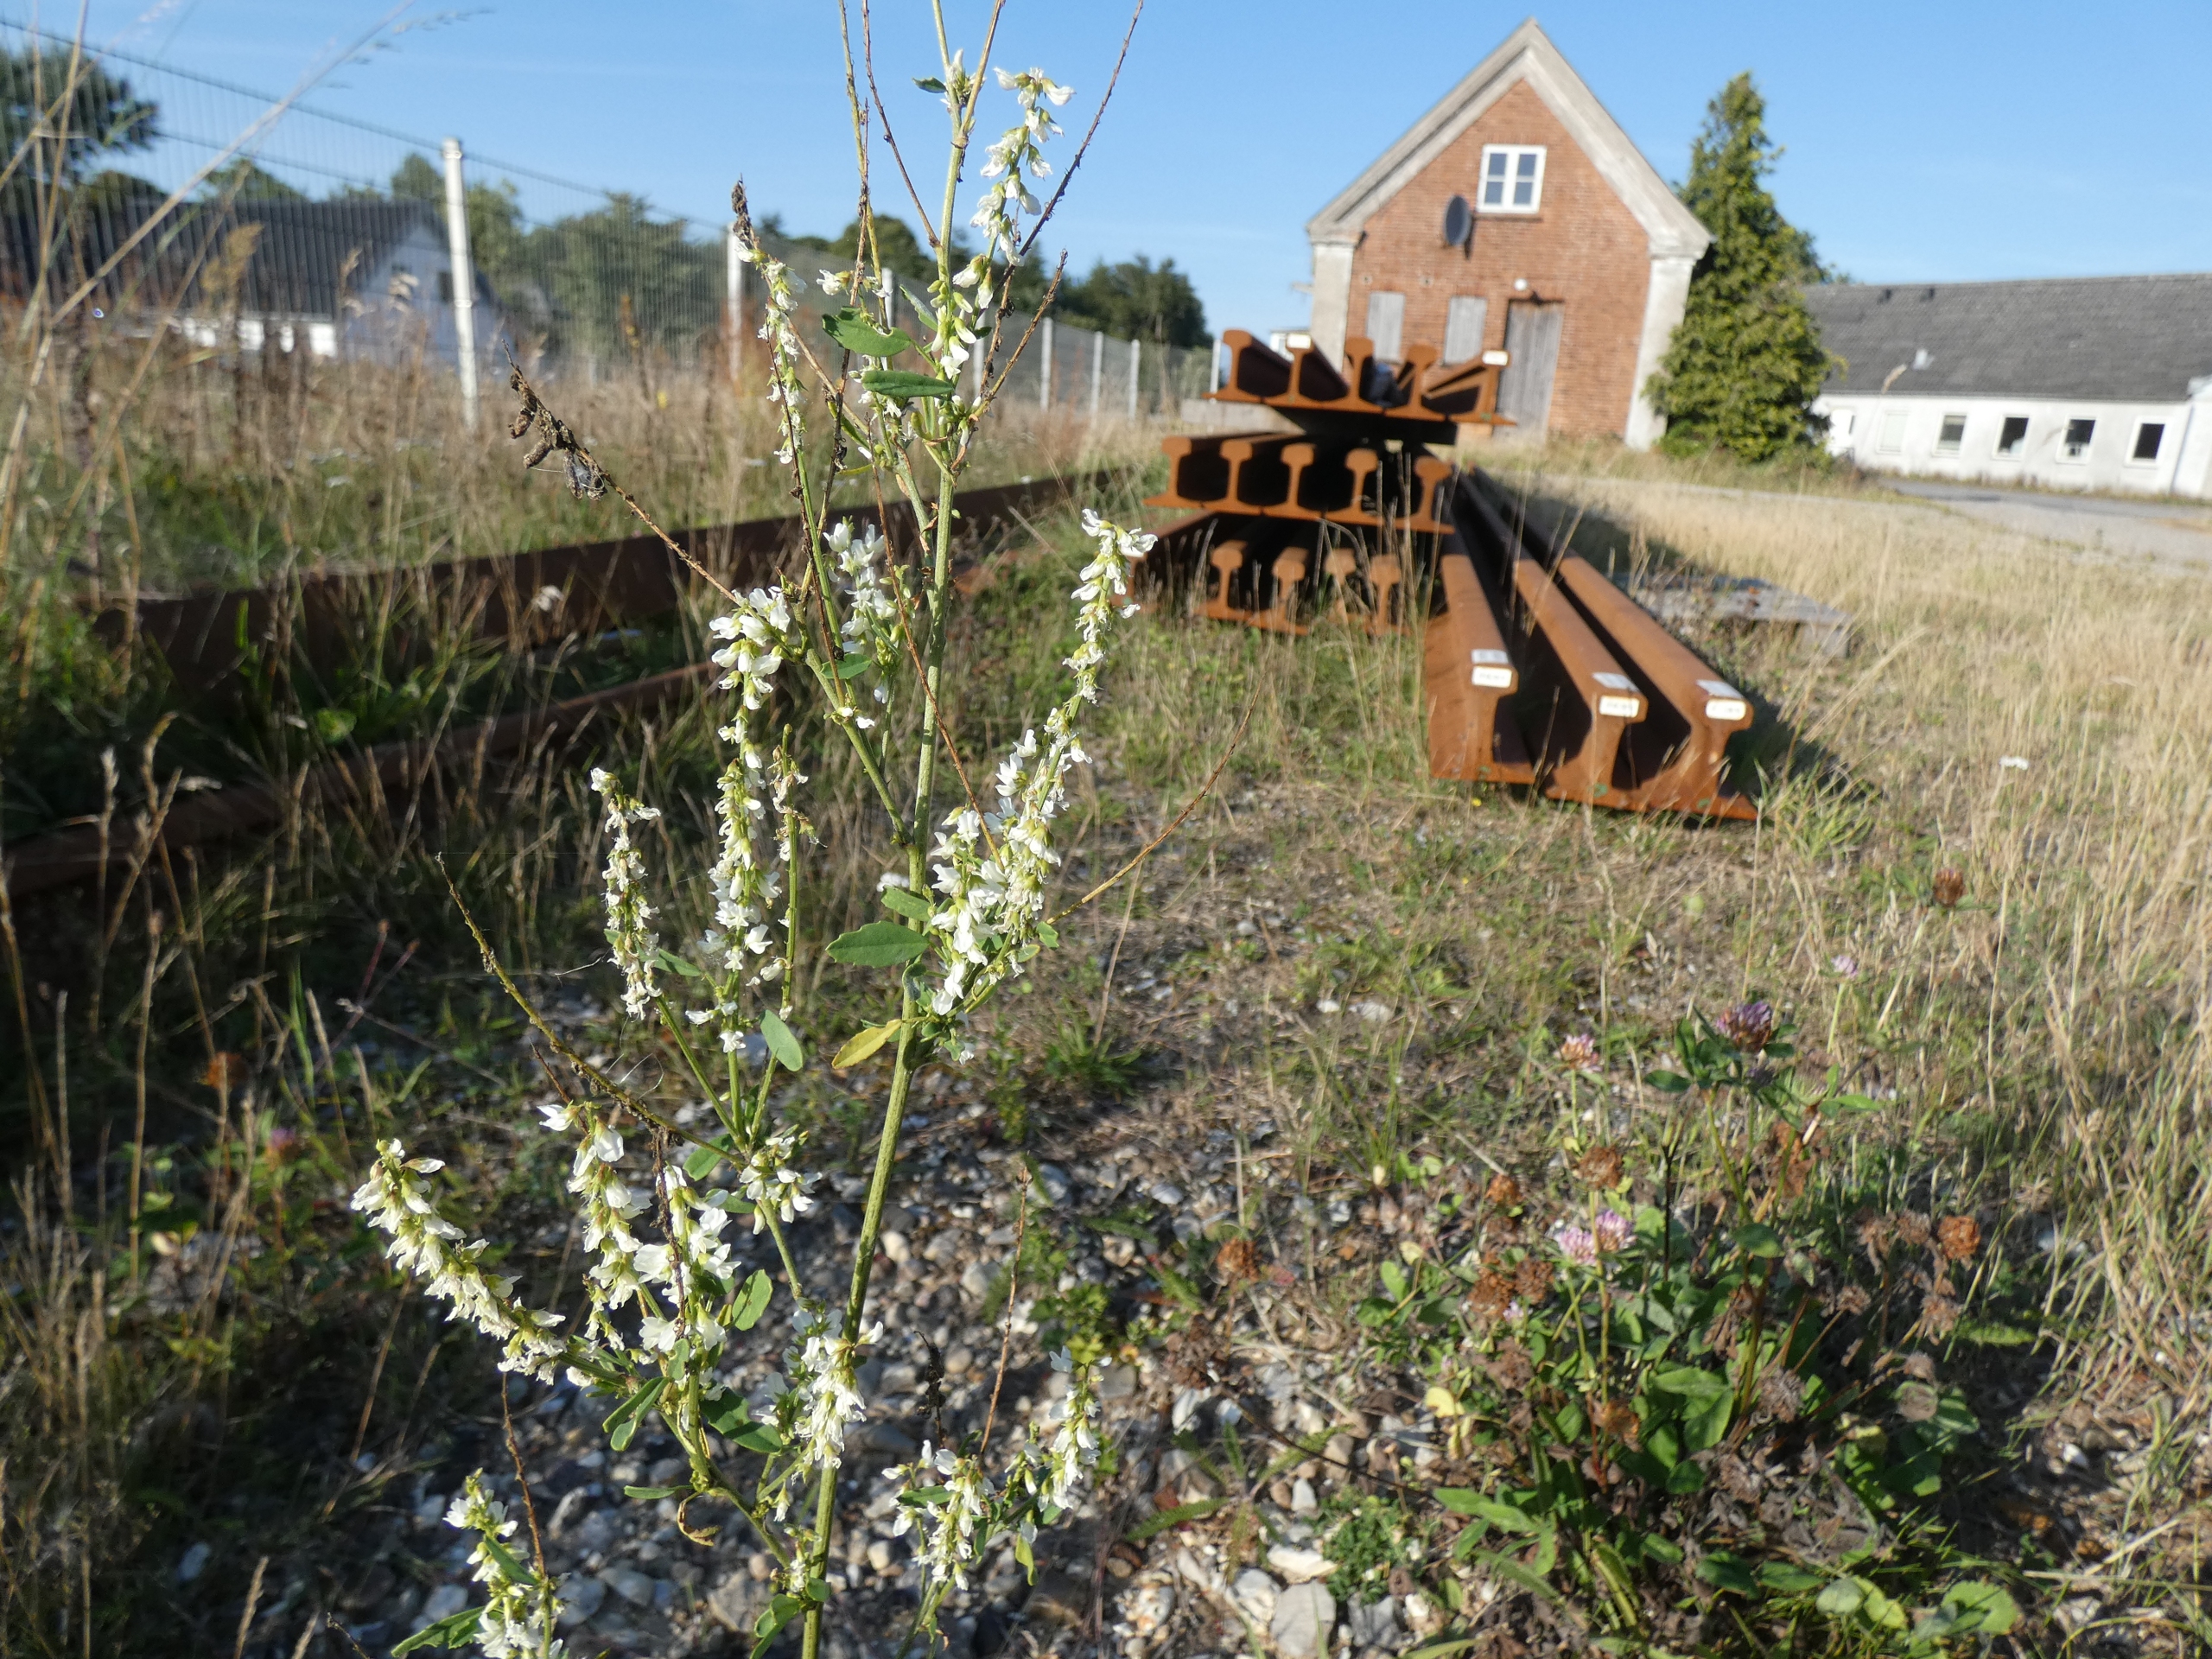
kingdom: Plantae
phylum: Tracheophyta
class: Magnoliopsida
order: Fabales
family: Fabaceae
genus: Melilotus
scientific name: Melilotus albus
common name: Hvid stenkløver
